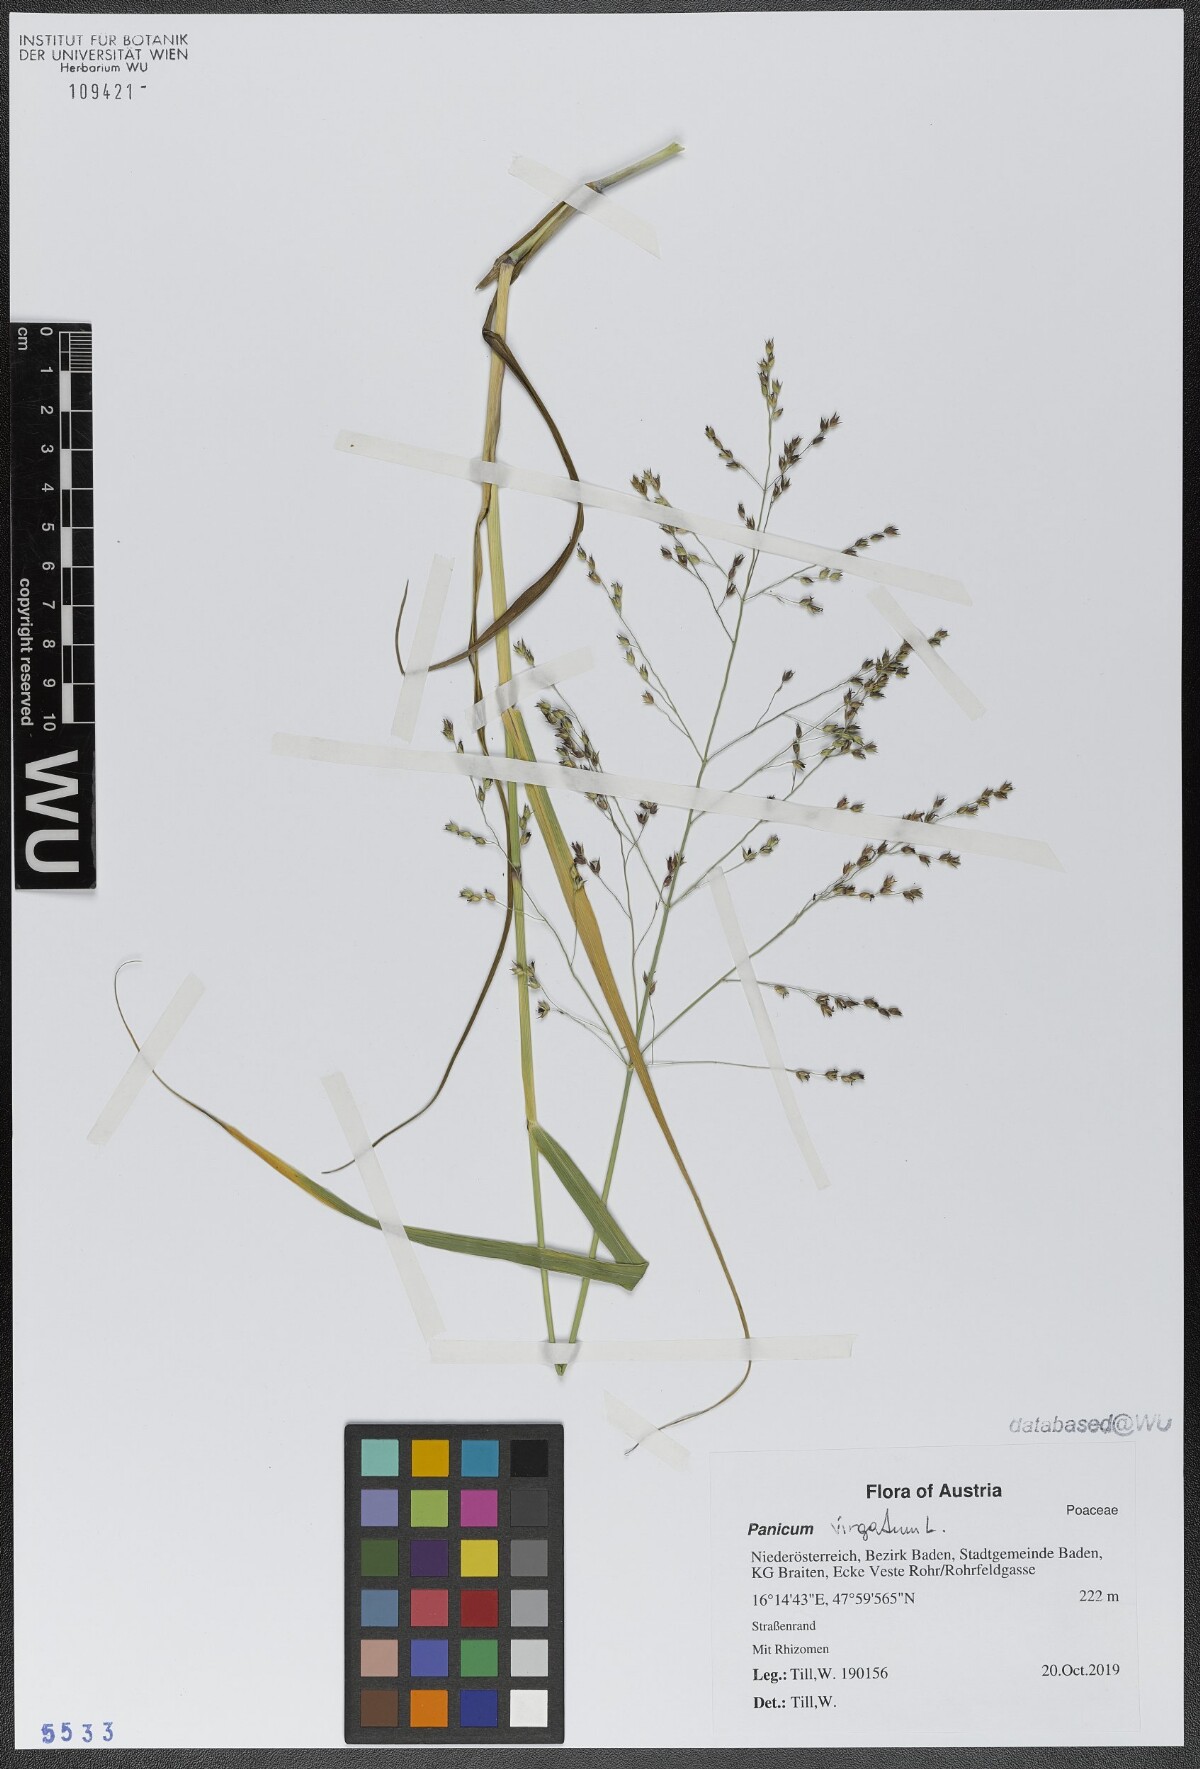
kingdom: Plantae
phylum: Tracheophyta
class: Liliopsida
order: Poales
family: Poaceae
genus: Panicum
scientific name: Panicum virgatum
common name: Switchgrass
